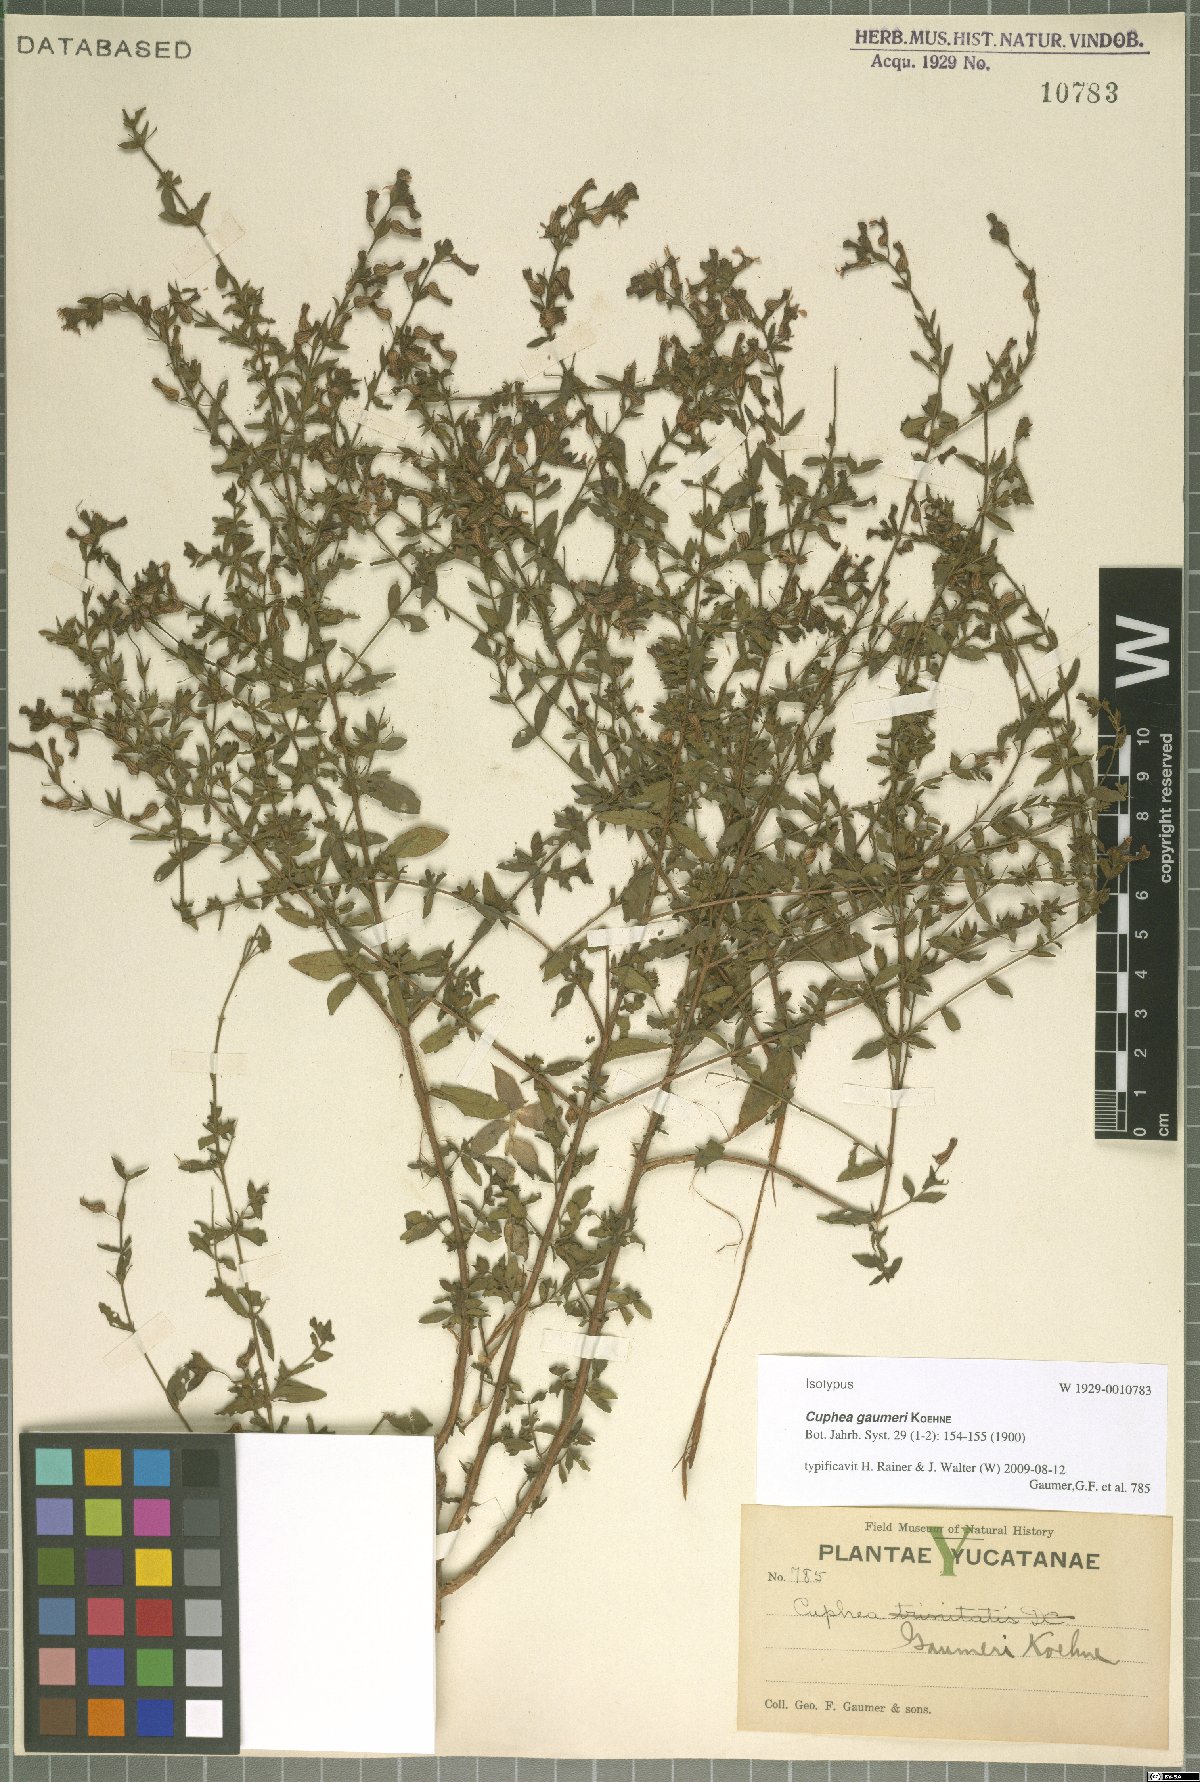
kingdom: Plantae
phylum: Tracheophyta
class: Magnoliopsida
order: Myrtales
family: Lythraceae
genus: Cuphea
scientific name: Cuphea gaumeri
